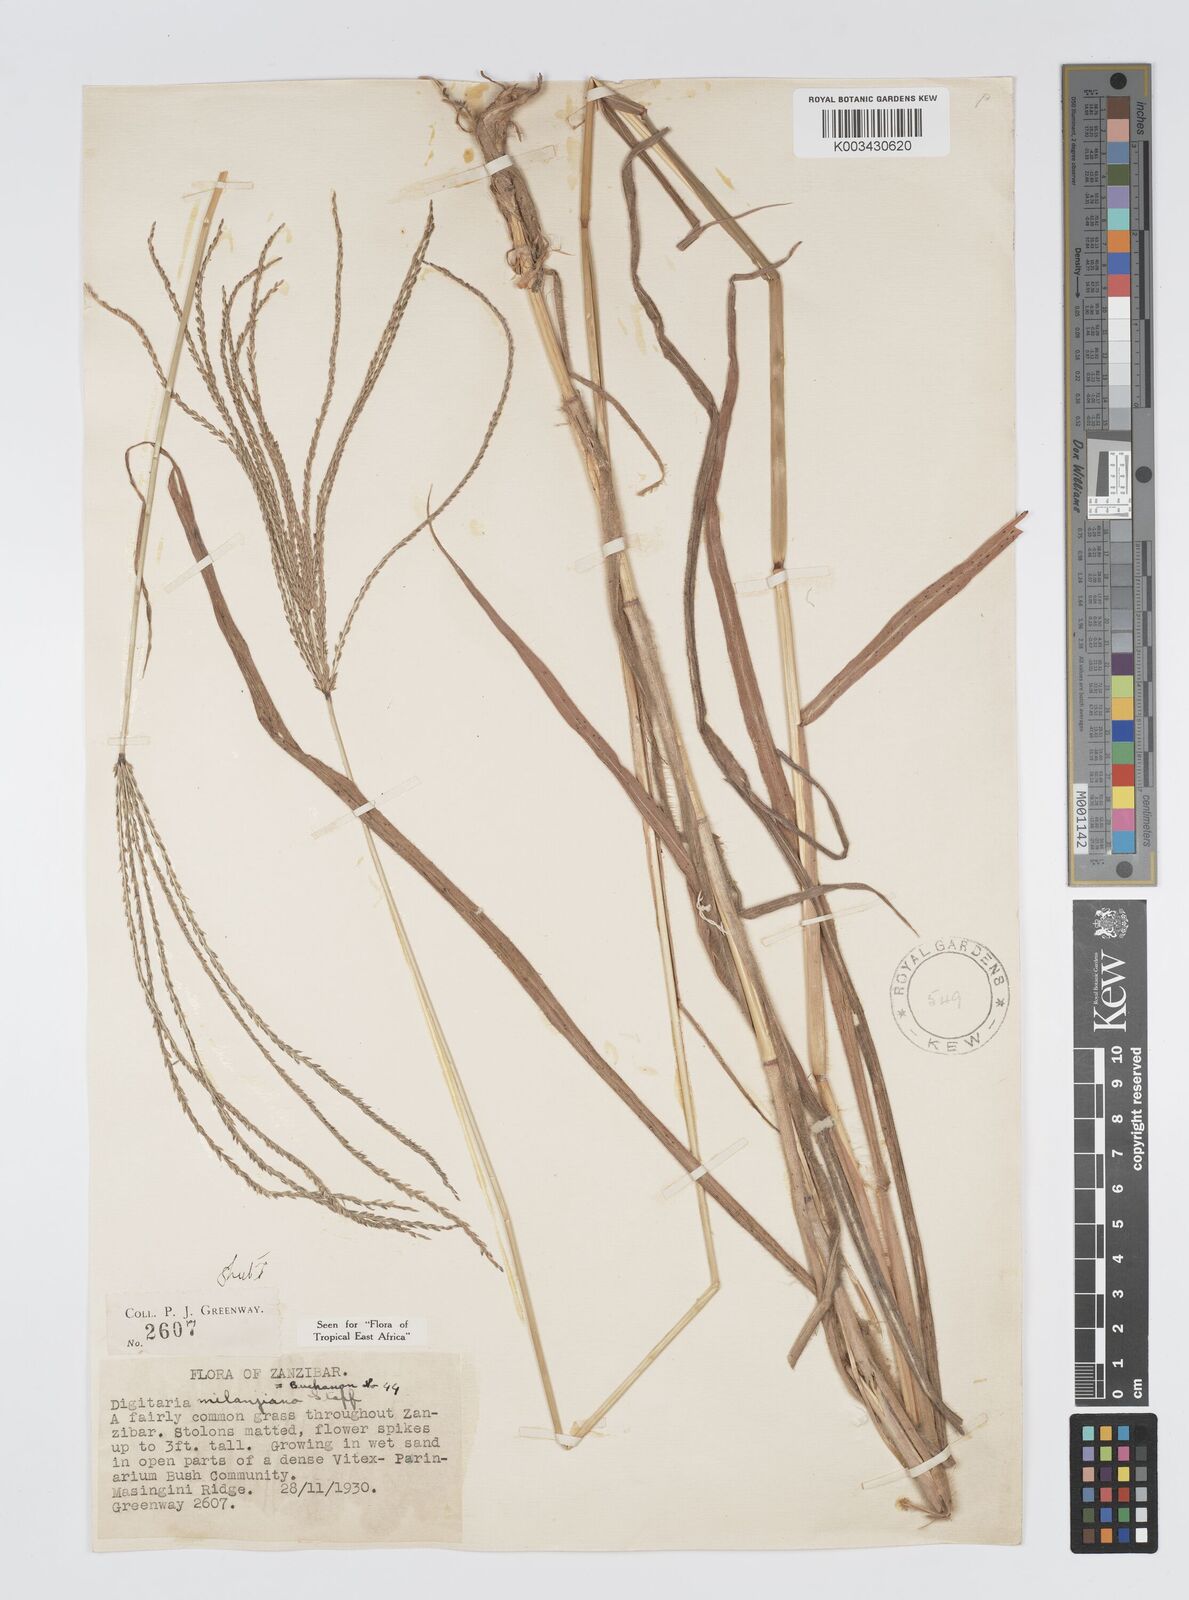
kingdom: Plantae
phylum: Tracheophyta
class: Liliopsida
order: Poales
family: Poaceae
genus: Digitaria
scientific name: Digitaria milanjiana
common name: Madagascar crabgrass
